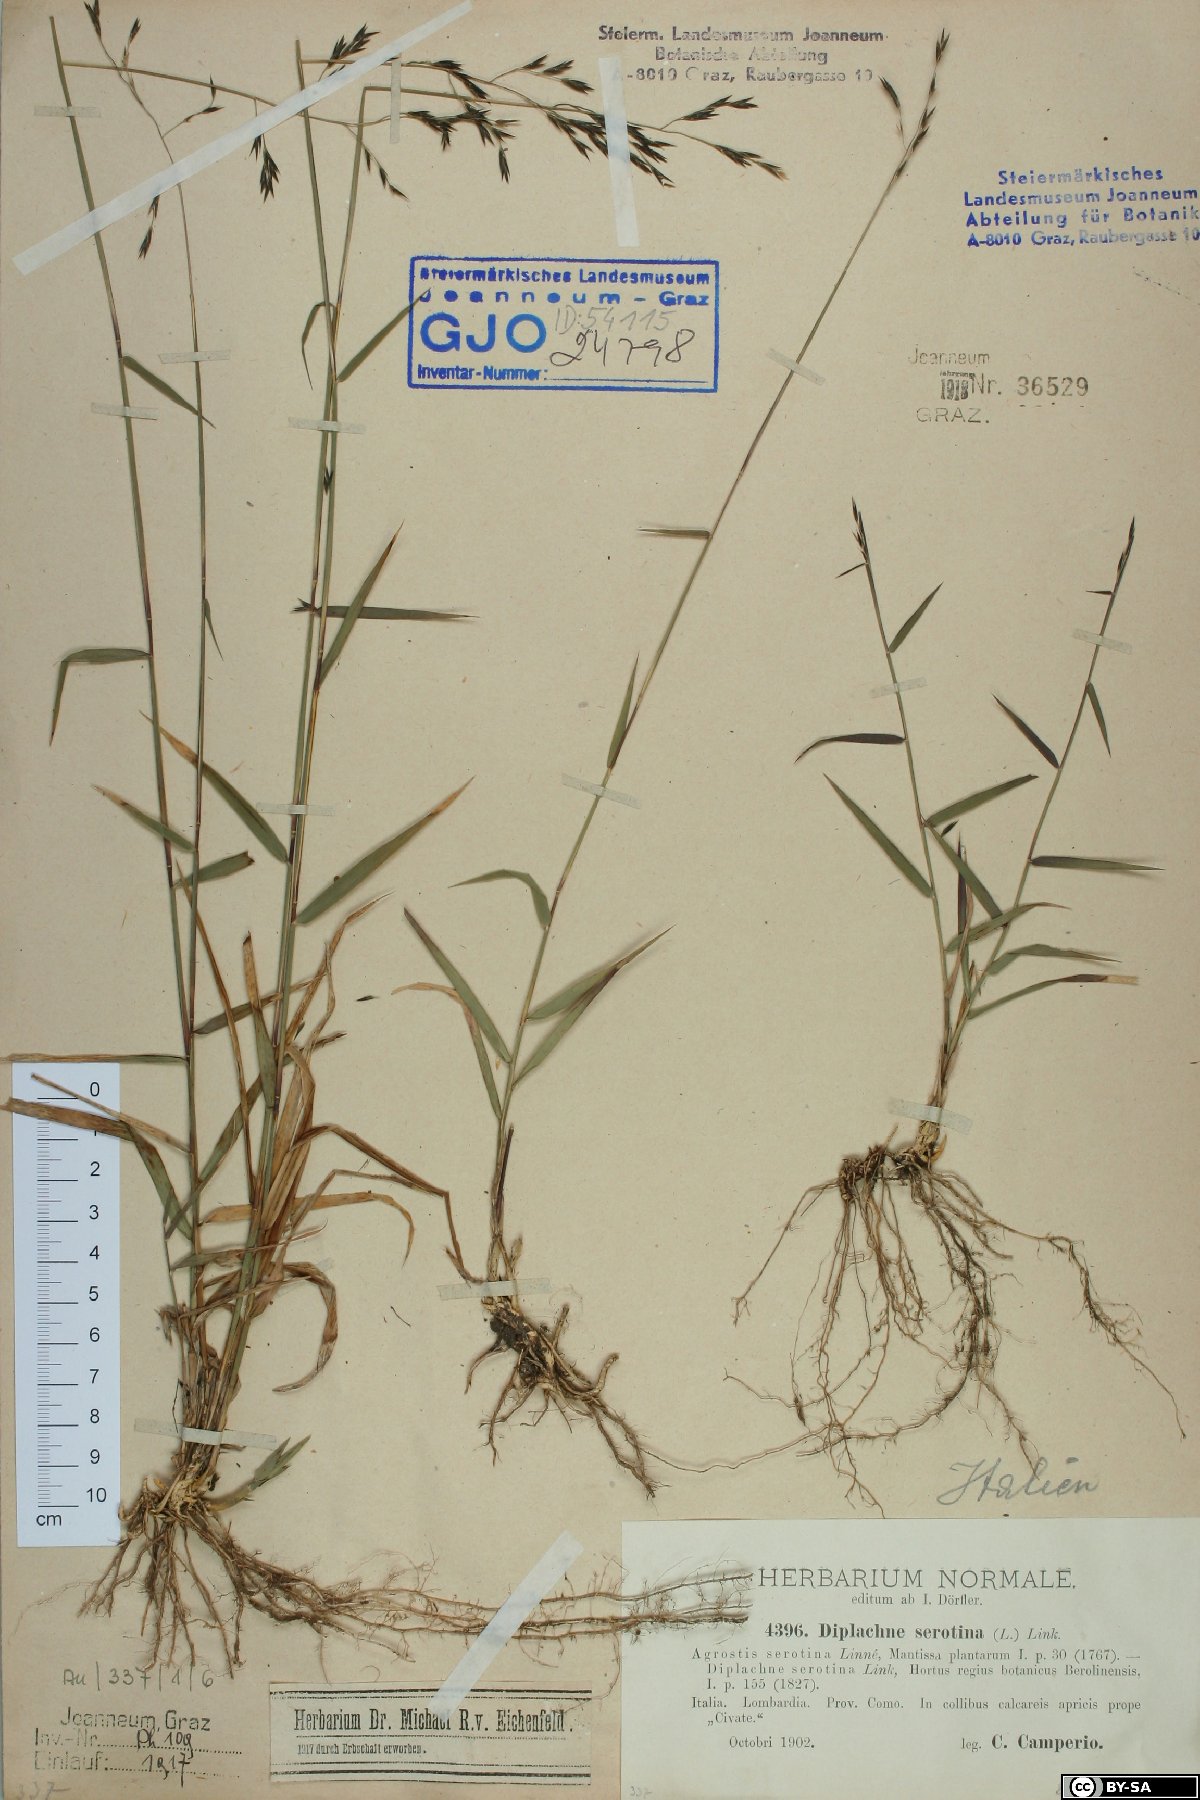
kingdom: Plantae
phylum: Tracheophyta
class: Liliopsida
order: Poales
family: Poaceae
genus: Cleistogenes
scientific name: Cleistogenes serotina
